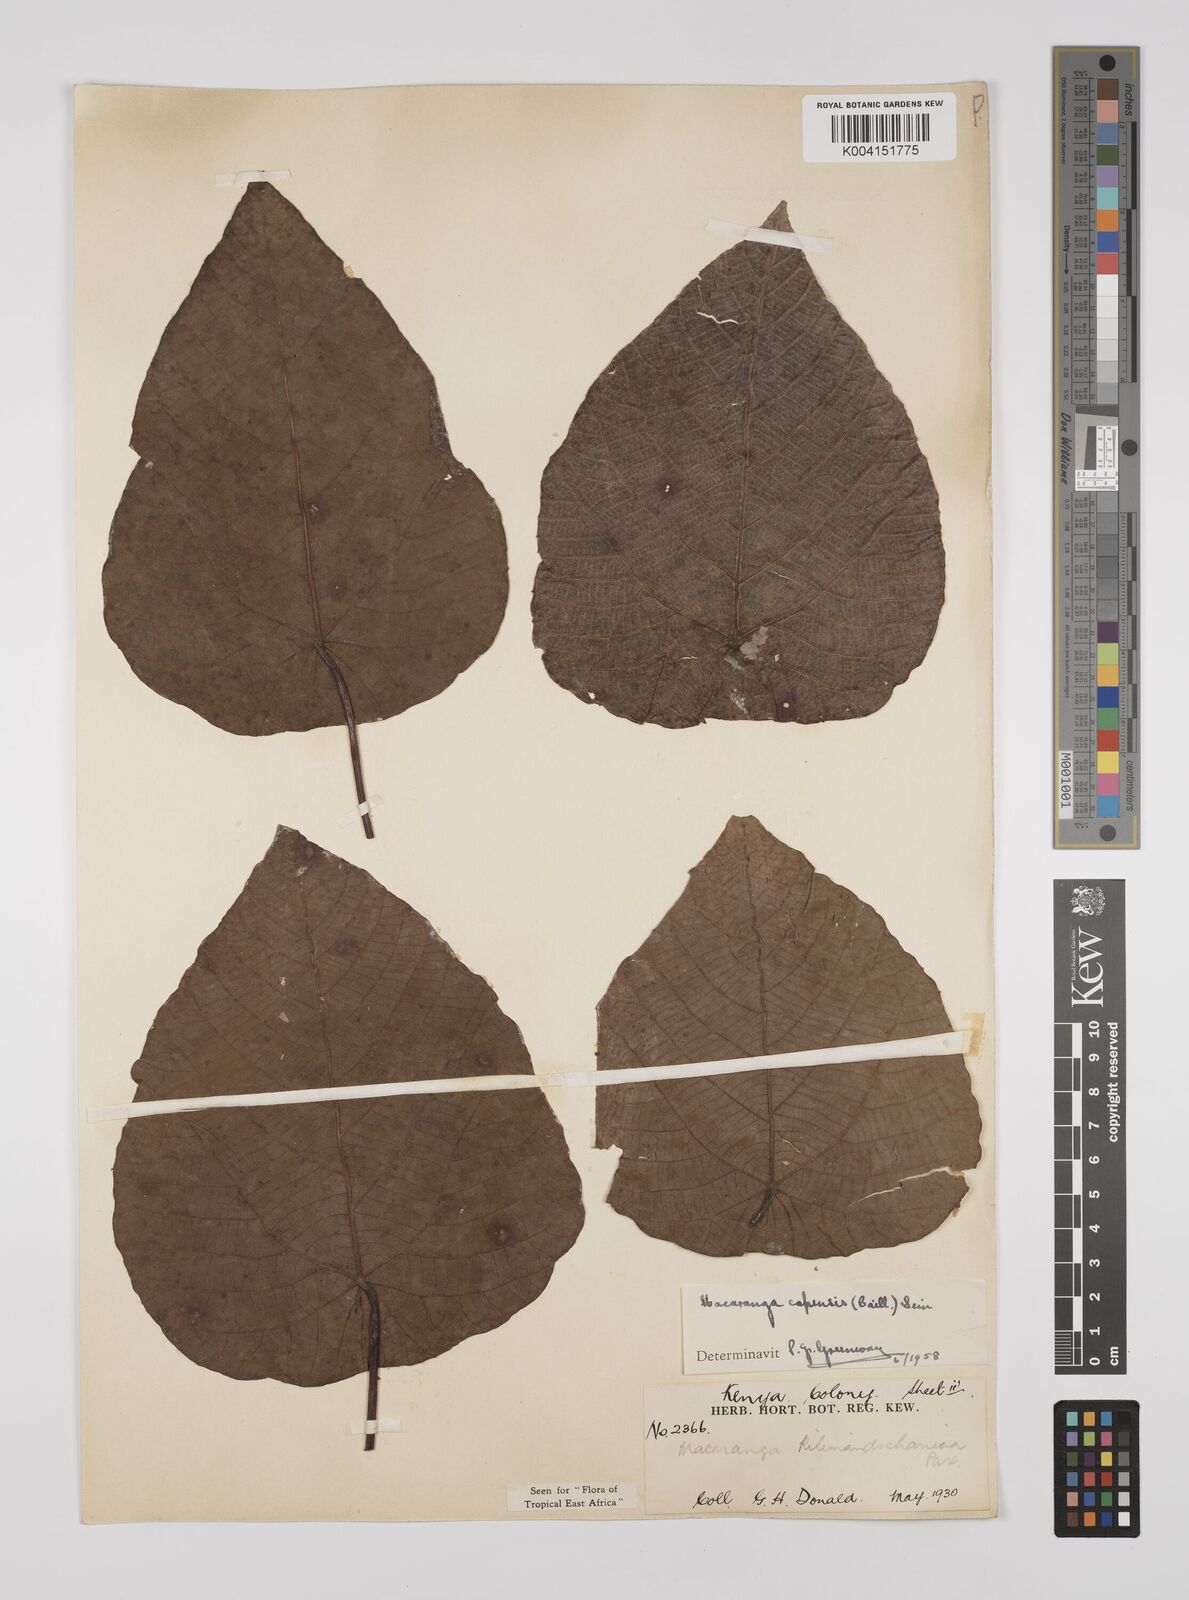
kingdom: Plantae
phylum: Tracheophyta
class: Magnoliopsida
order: Malpighiales
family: Euphorbiaceae
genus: Macaranga
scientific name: Macaranga capensis
